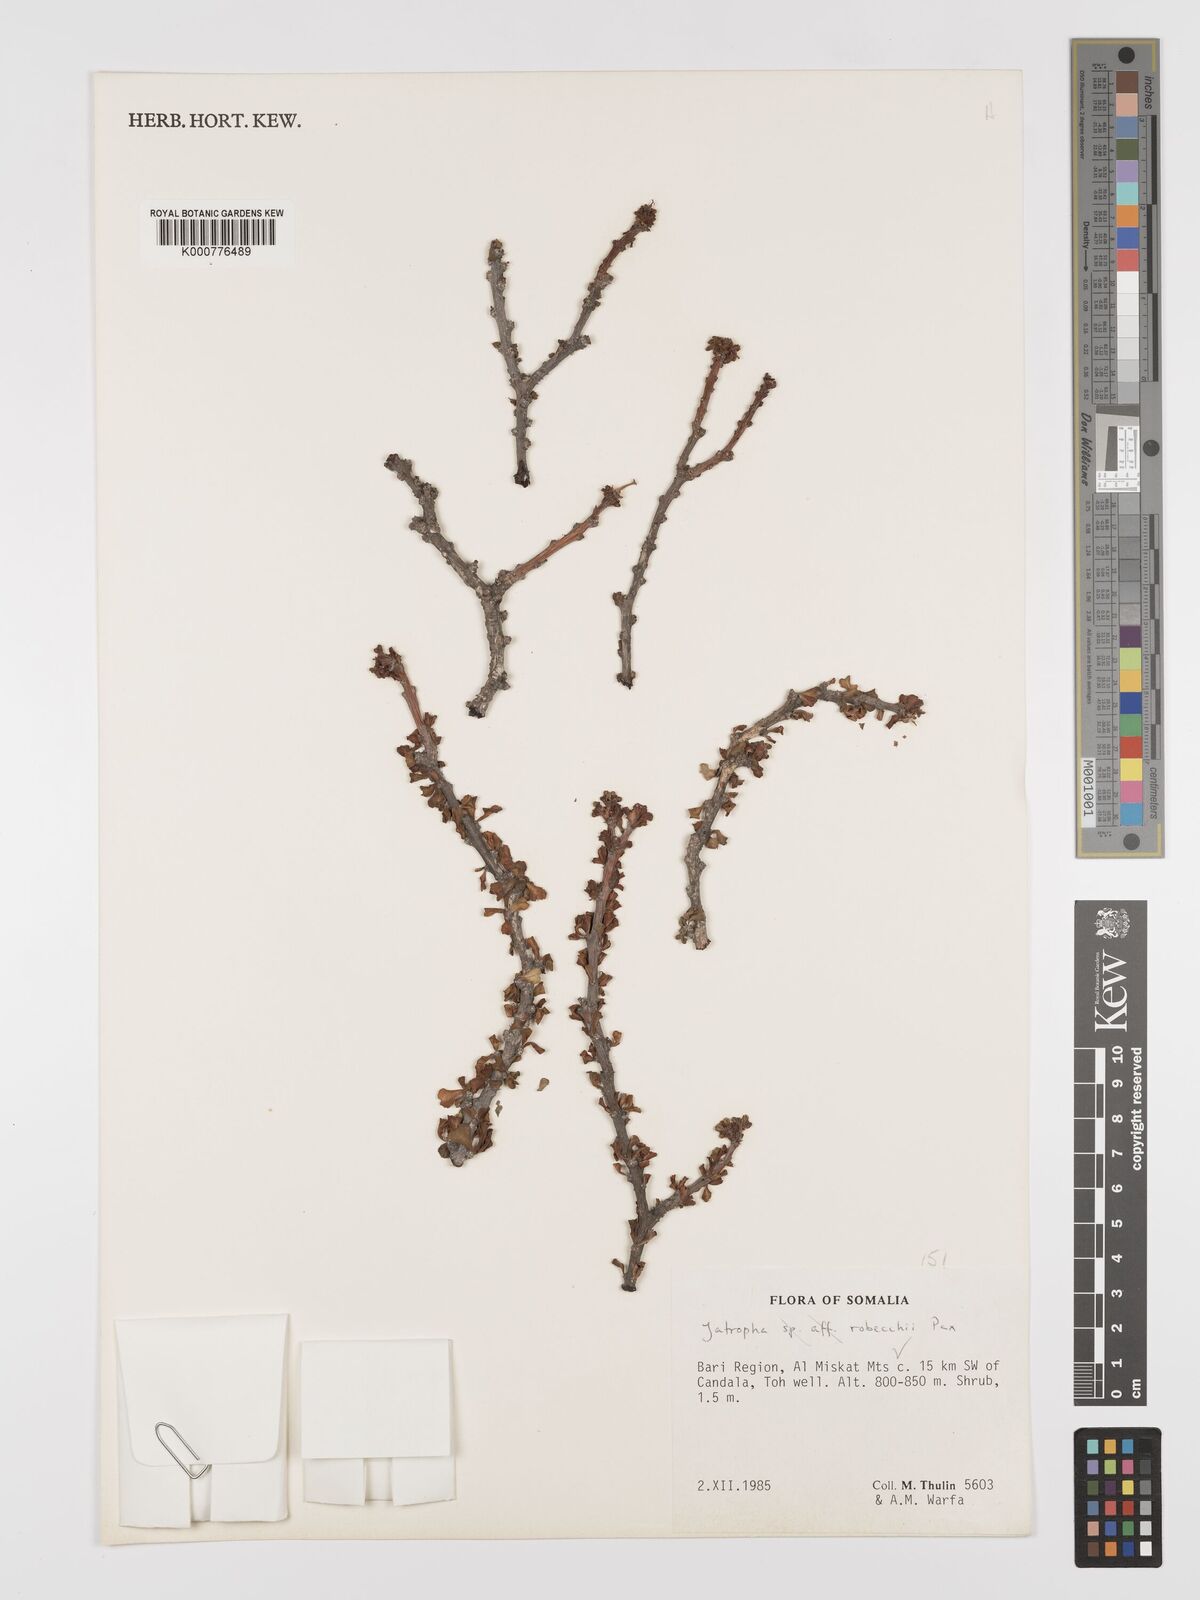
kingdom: Plantae
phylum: Tracheophyta
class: Magnoliopsida
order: Malpighiales
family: Euphorbiaceae
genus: Jatropha
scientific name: Jatropha robecchii
